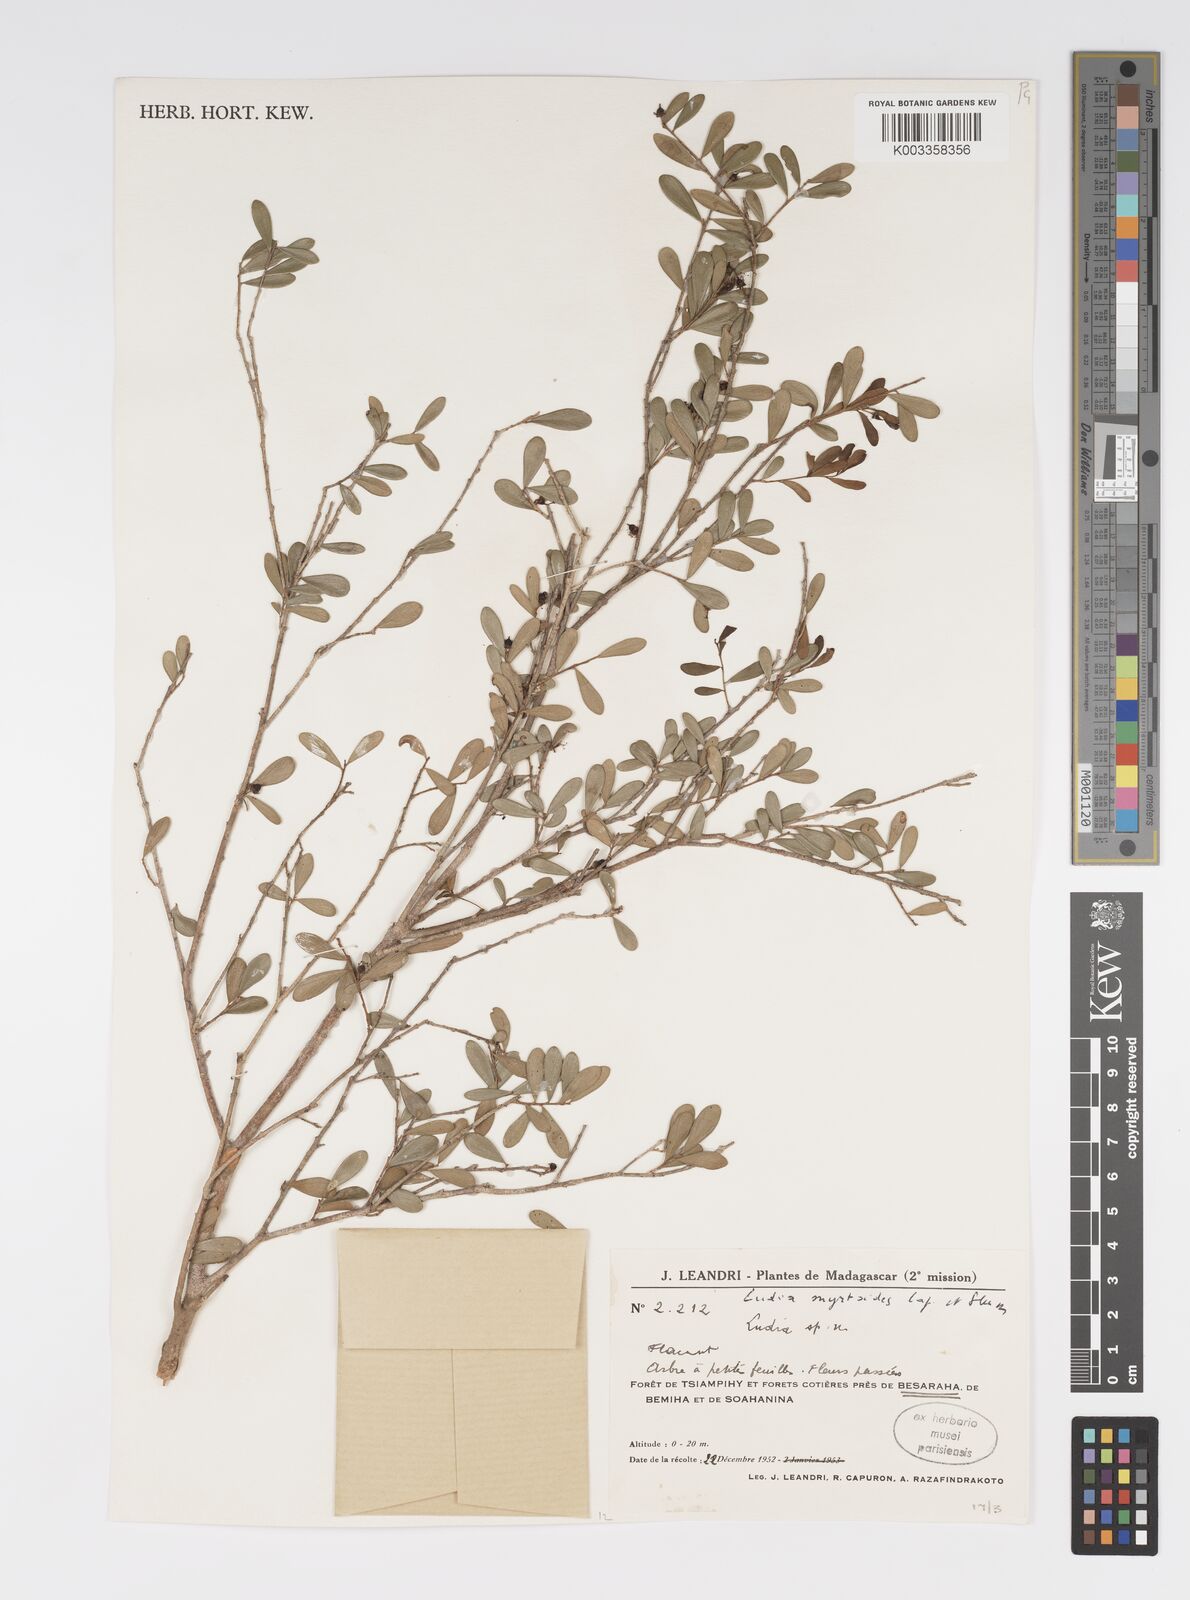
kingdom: Plantae
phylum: Tracheophyta
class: Magnoliopsida
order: Malpighiales
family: Salicaceae
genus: Scolopia
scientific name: Scolopia heterophylla
